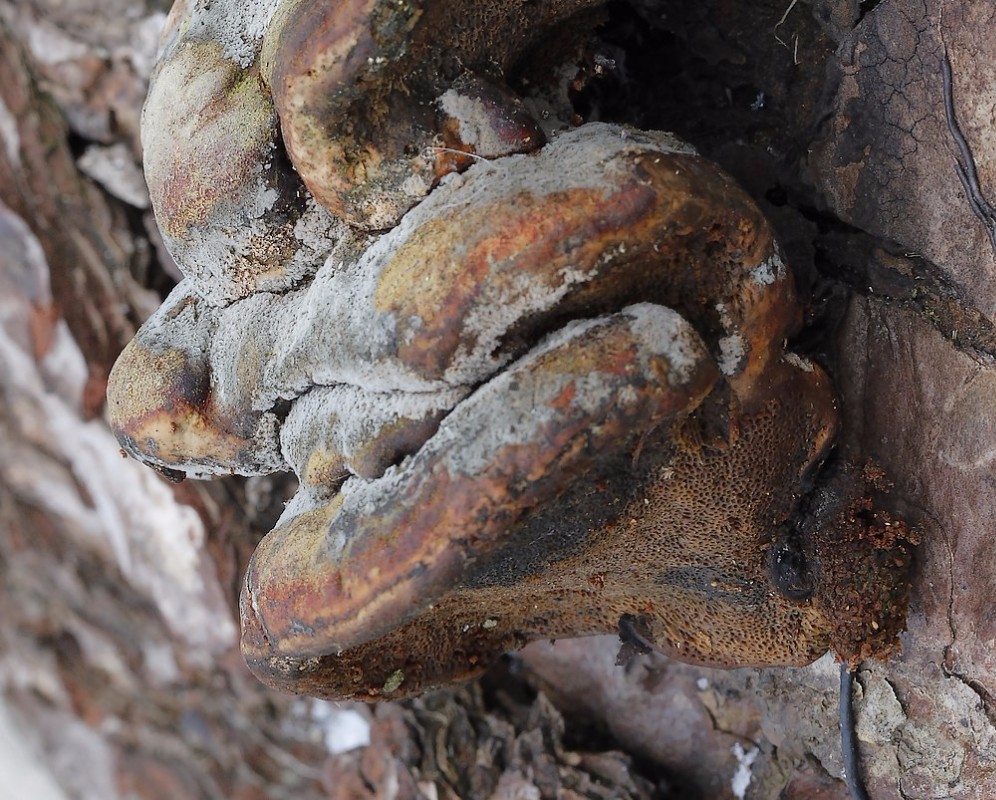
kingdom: Fungi
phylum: Basidiomycota
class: Agaricomycetes
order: Polyporales
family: Fomitopsidaceae
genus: Fomitopsis
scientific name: Fomitopsis pinicola
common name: randbæltet hovporesvamp
